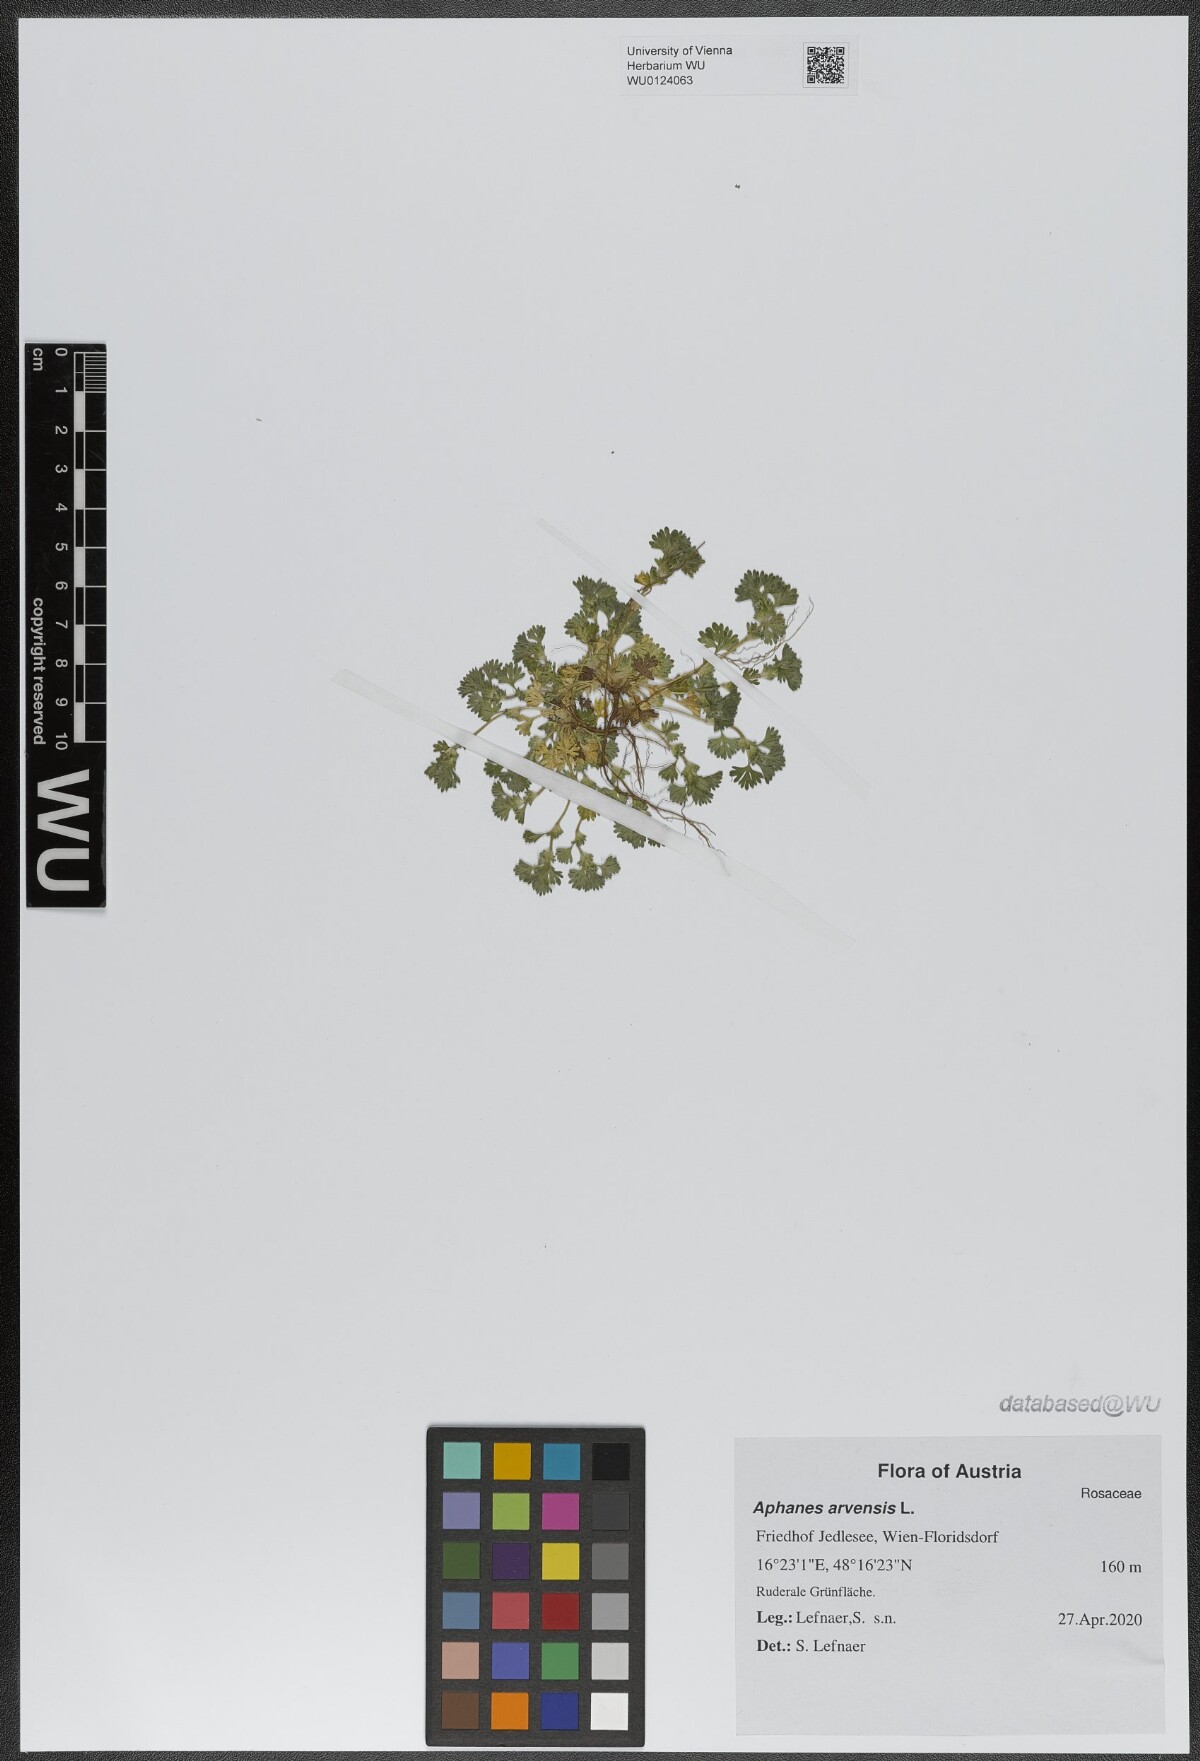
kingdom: Plantae
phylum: Tracheophyta
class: Magnoliopsida
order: Rosales
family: Rosaceae
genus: Aphanes
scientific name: Aphanes arvensis
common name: Parsley-piert
